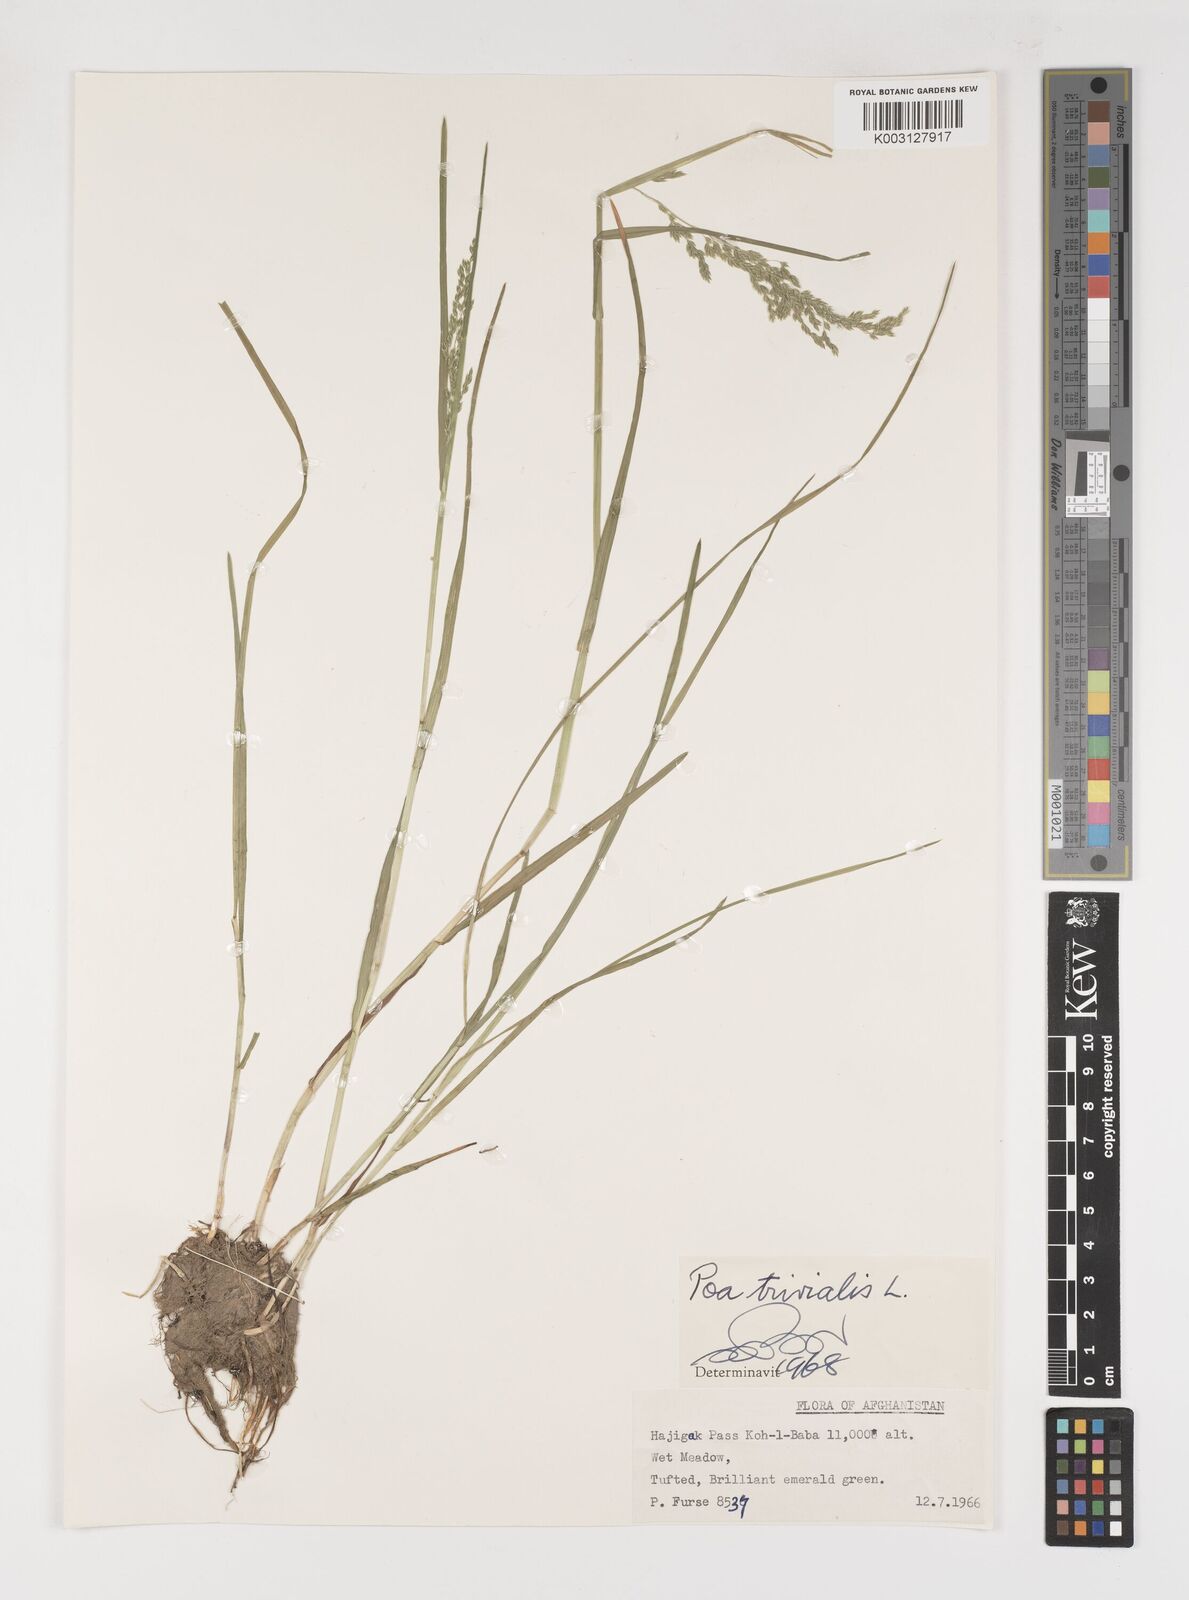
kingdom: Plantae
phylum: Tracheophyta
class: Liliopsida
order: Poales
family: Poaceae
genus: Poa
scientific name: Poa trivialis
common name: Rough bluegrass
